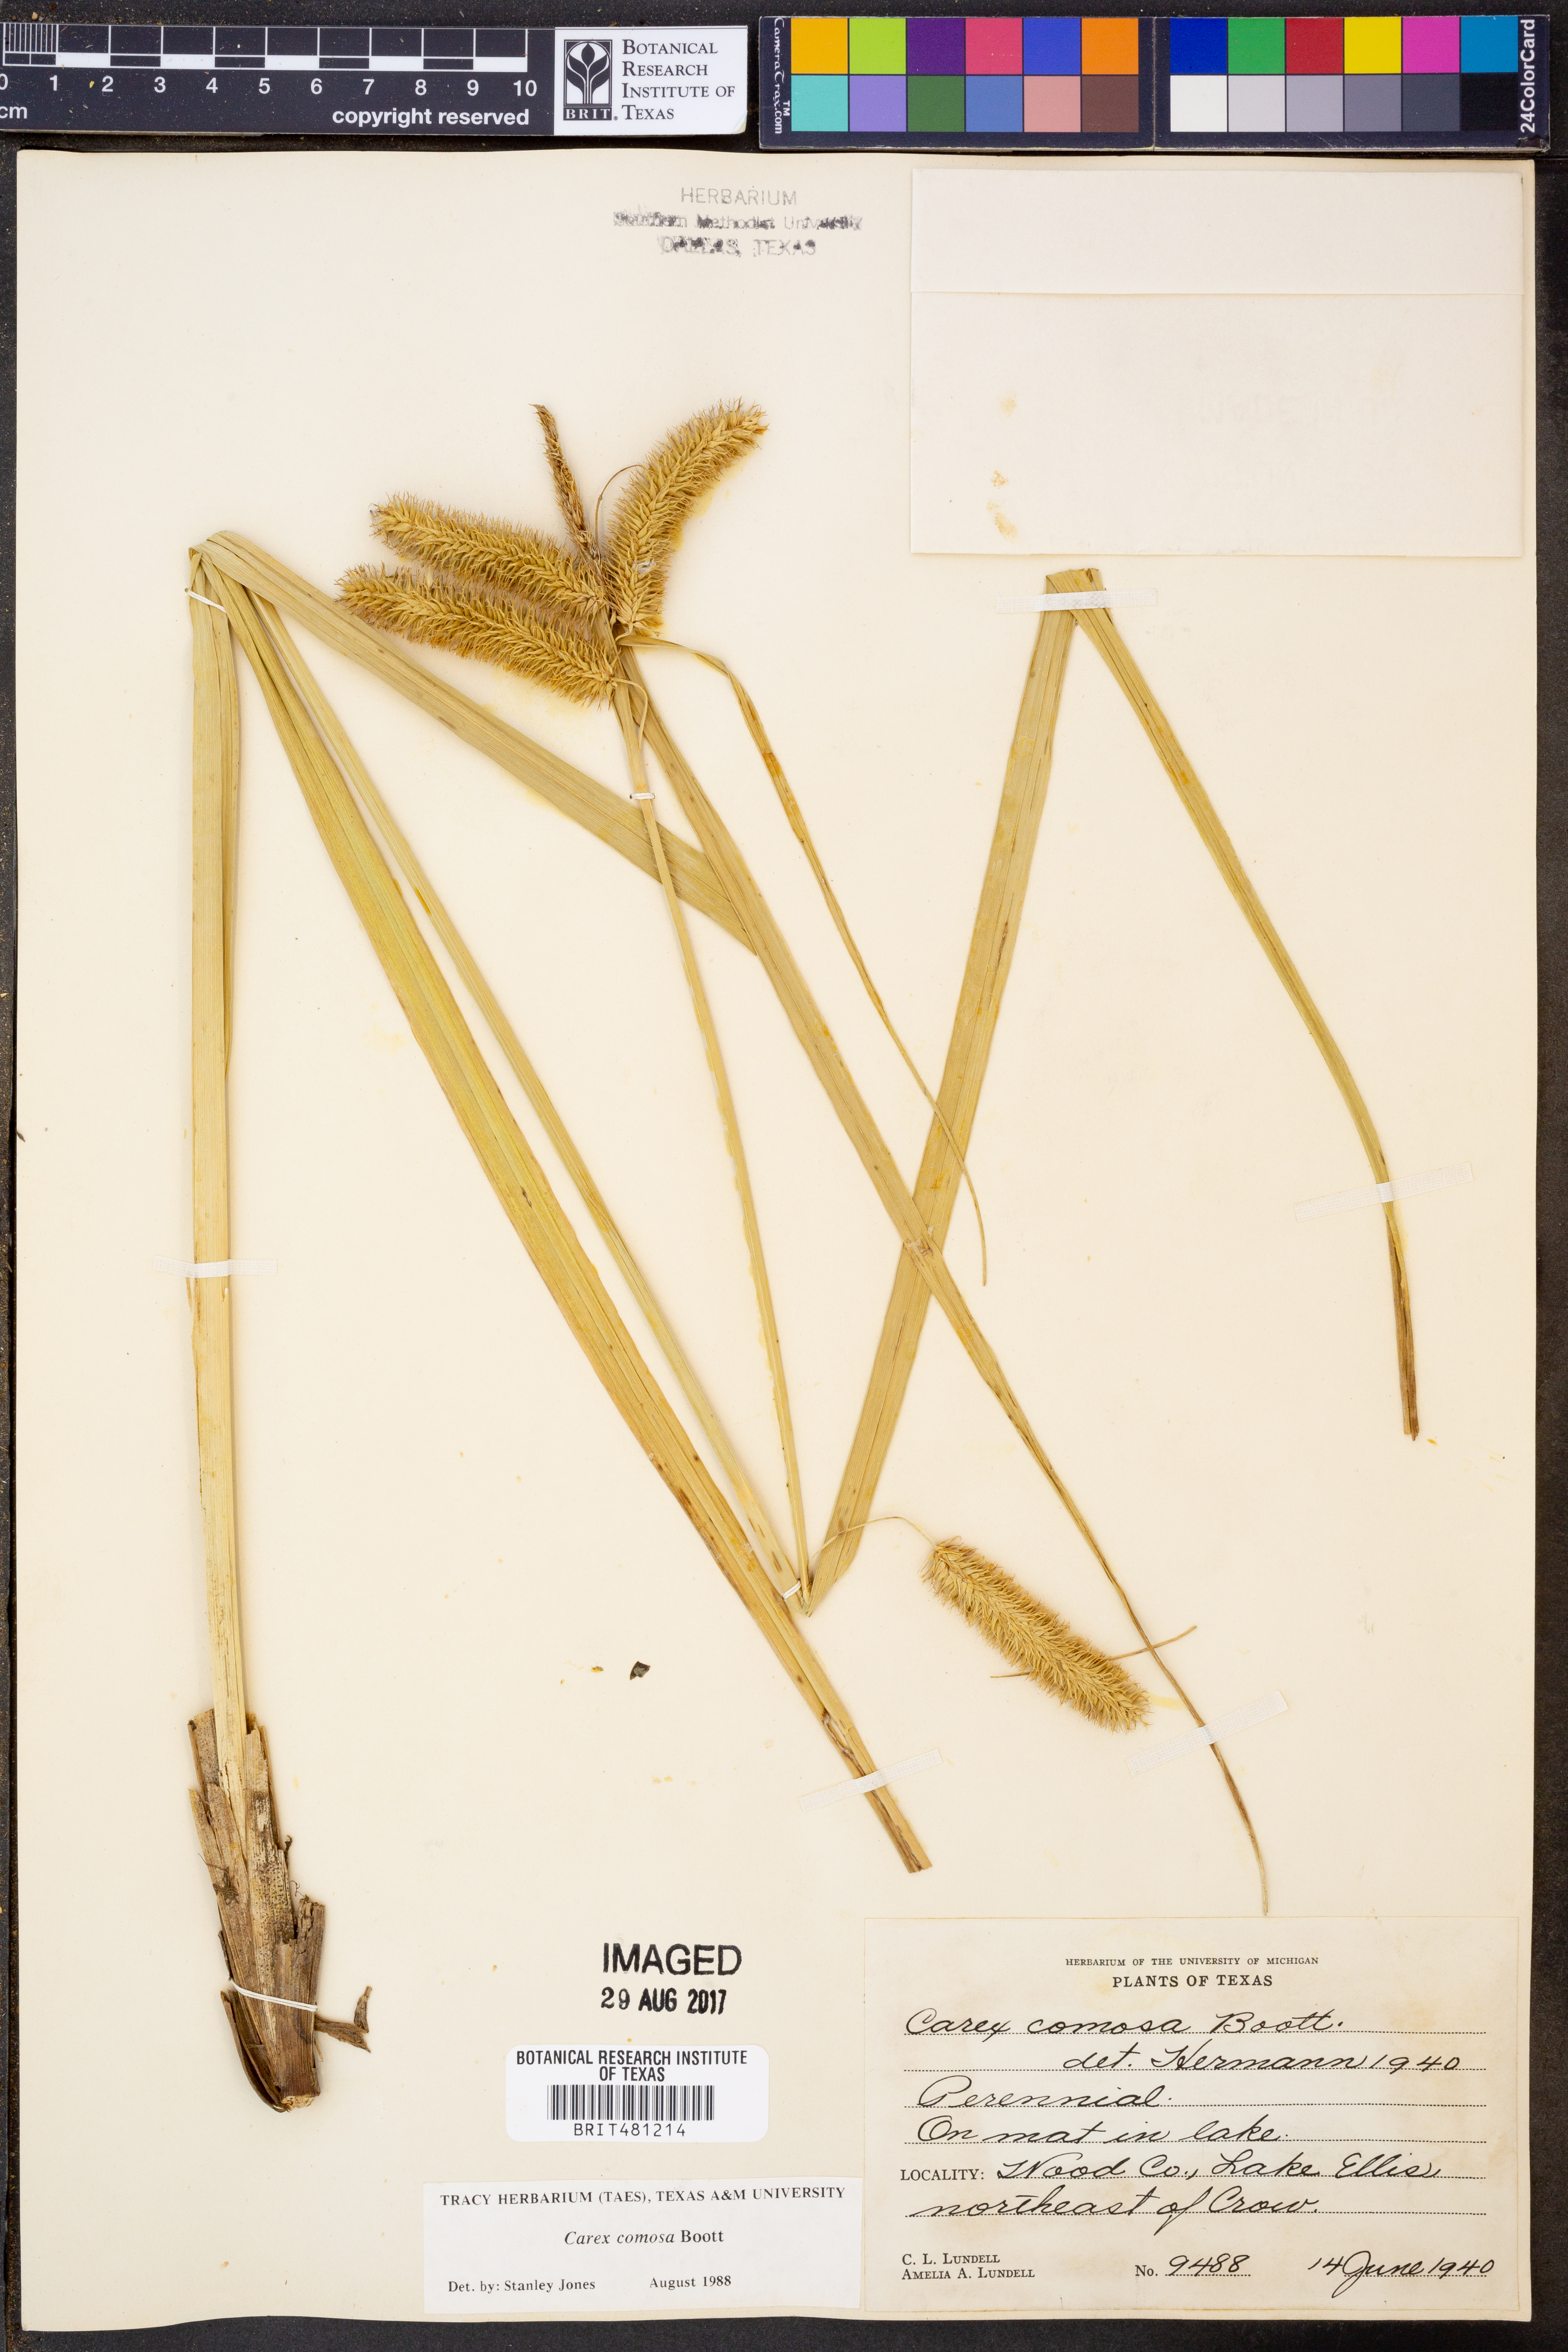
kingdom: Plantae
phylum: Tracheophyta
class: Liliopsida
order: Poales
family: Cyperaceae
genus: Carex
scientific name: Carex comosa
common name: Bristly sedge
